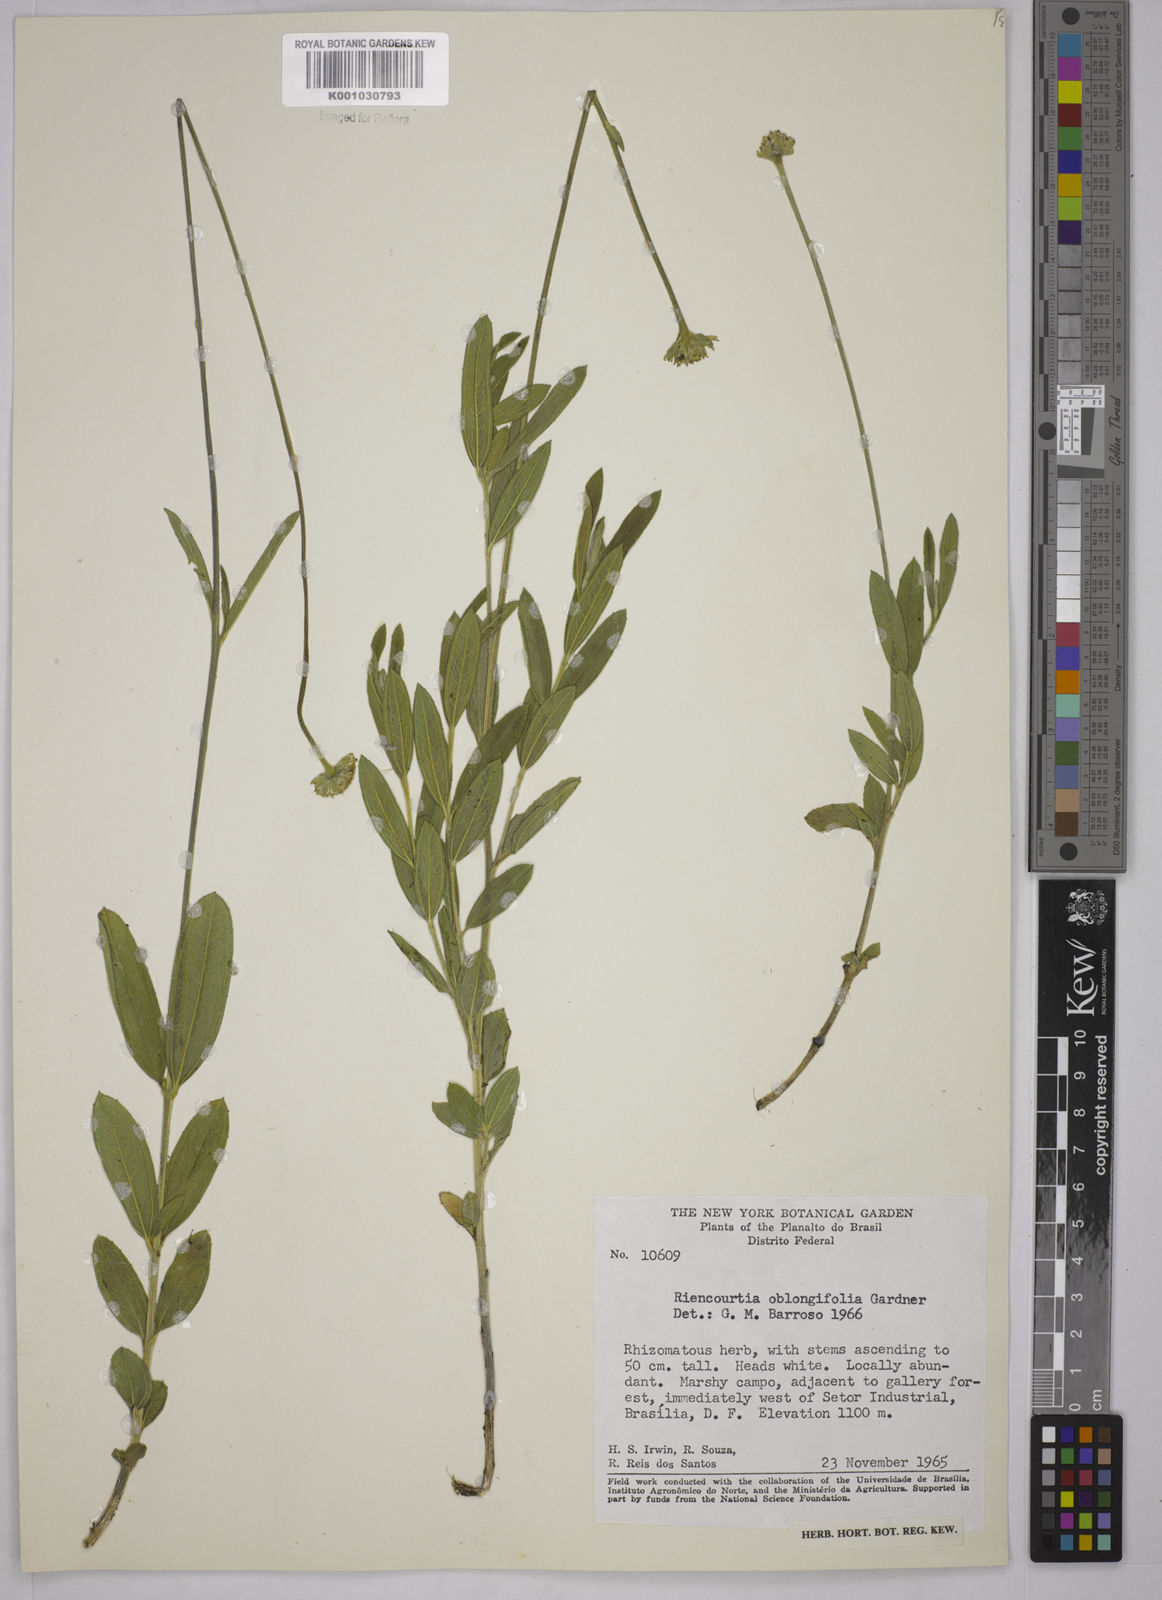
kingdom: Plantae
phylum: Tracheophyta
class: Magnoliopsida
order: Asterales
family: Asteraceae
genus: Riencourtia
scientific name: Riencourtia oblongifolia
